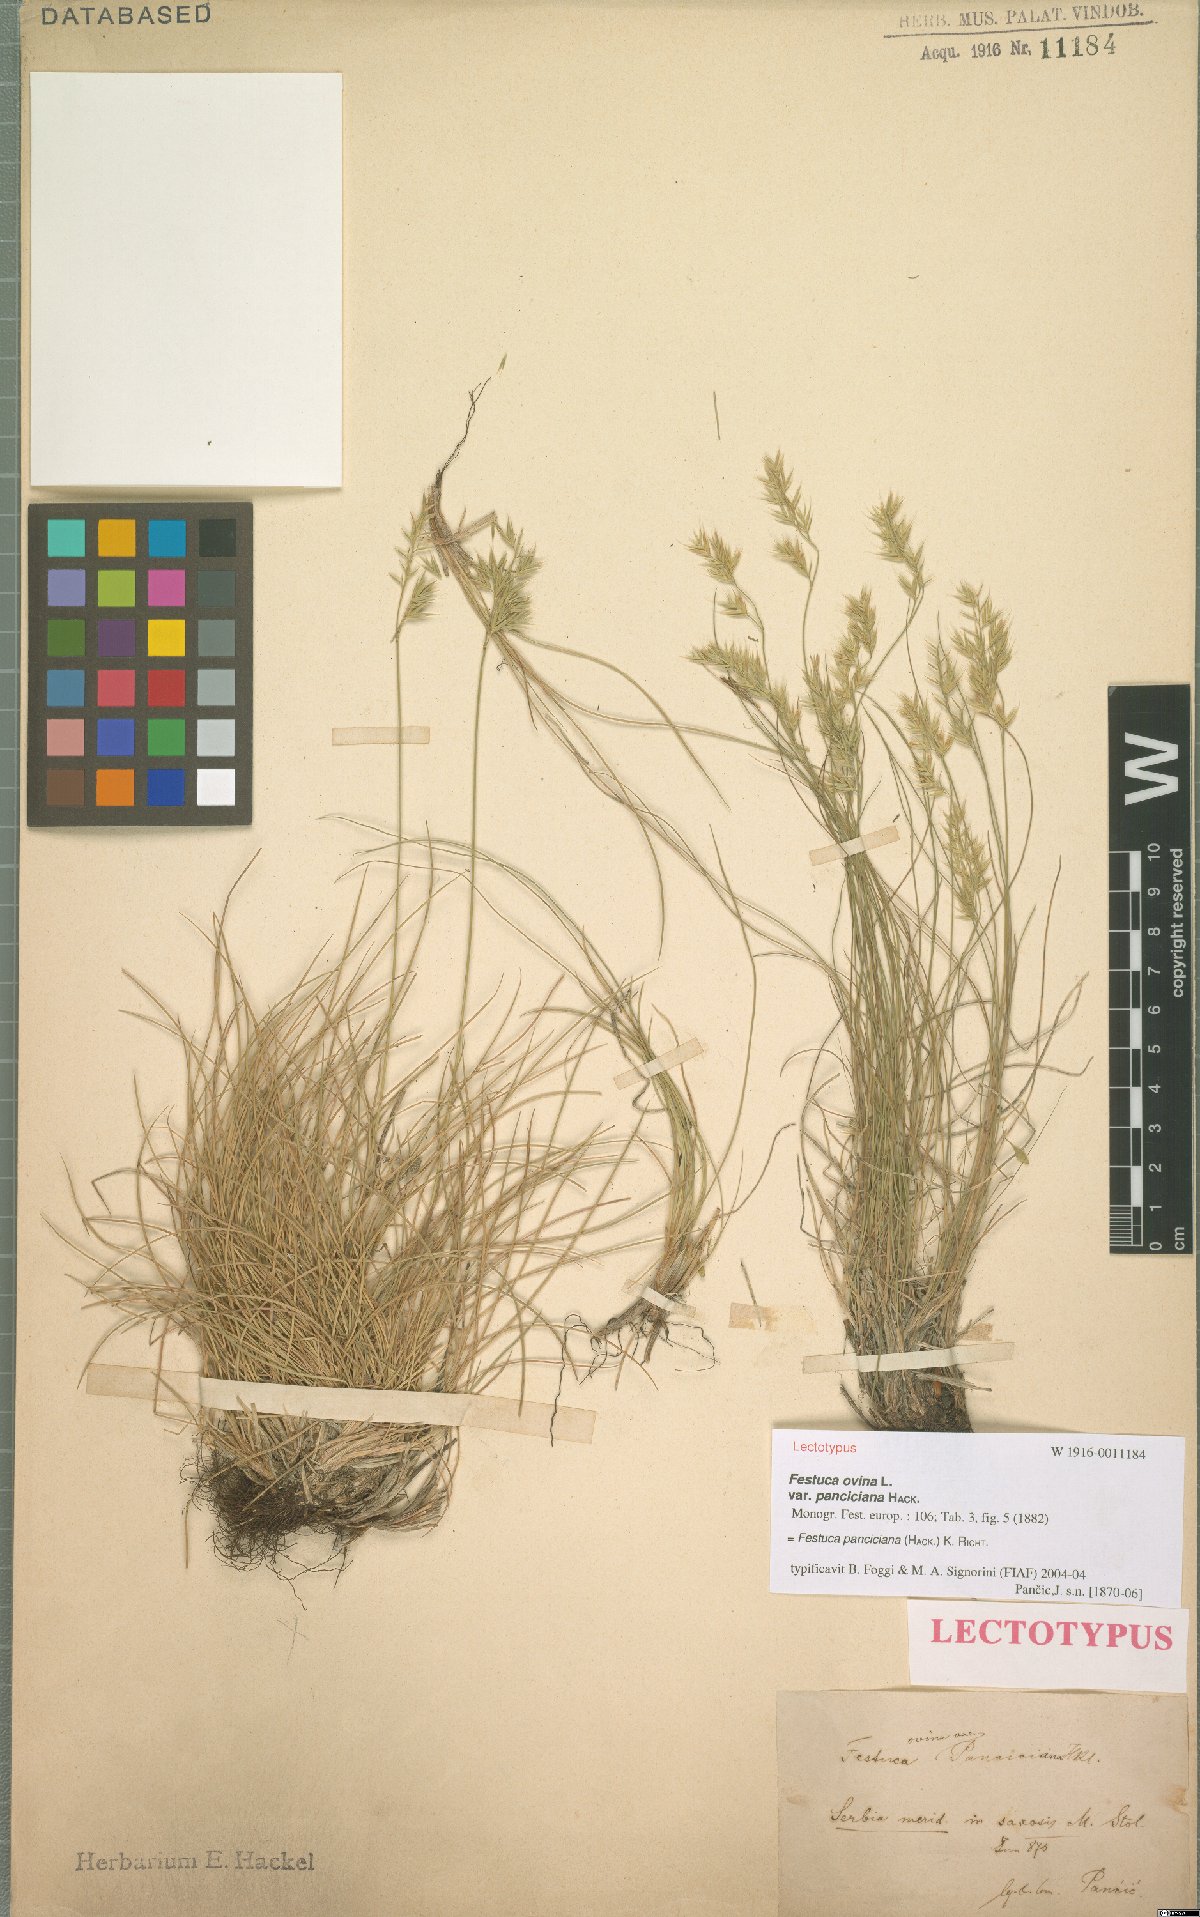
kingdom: Plantae
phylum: Tracheophyta
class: Liliopsida
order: Poales
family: Poaceae
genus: Festuca
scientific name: Festuca panciciana
